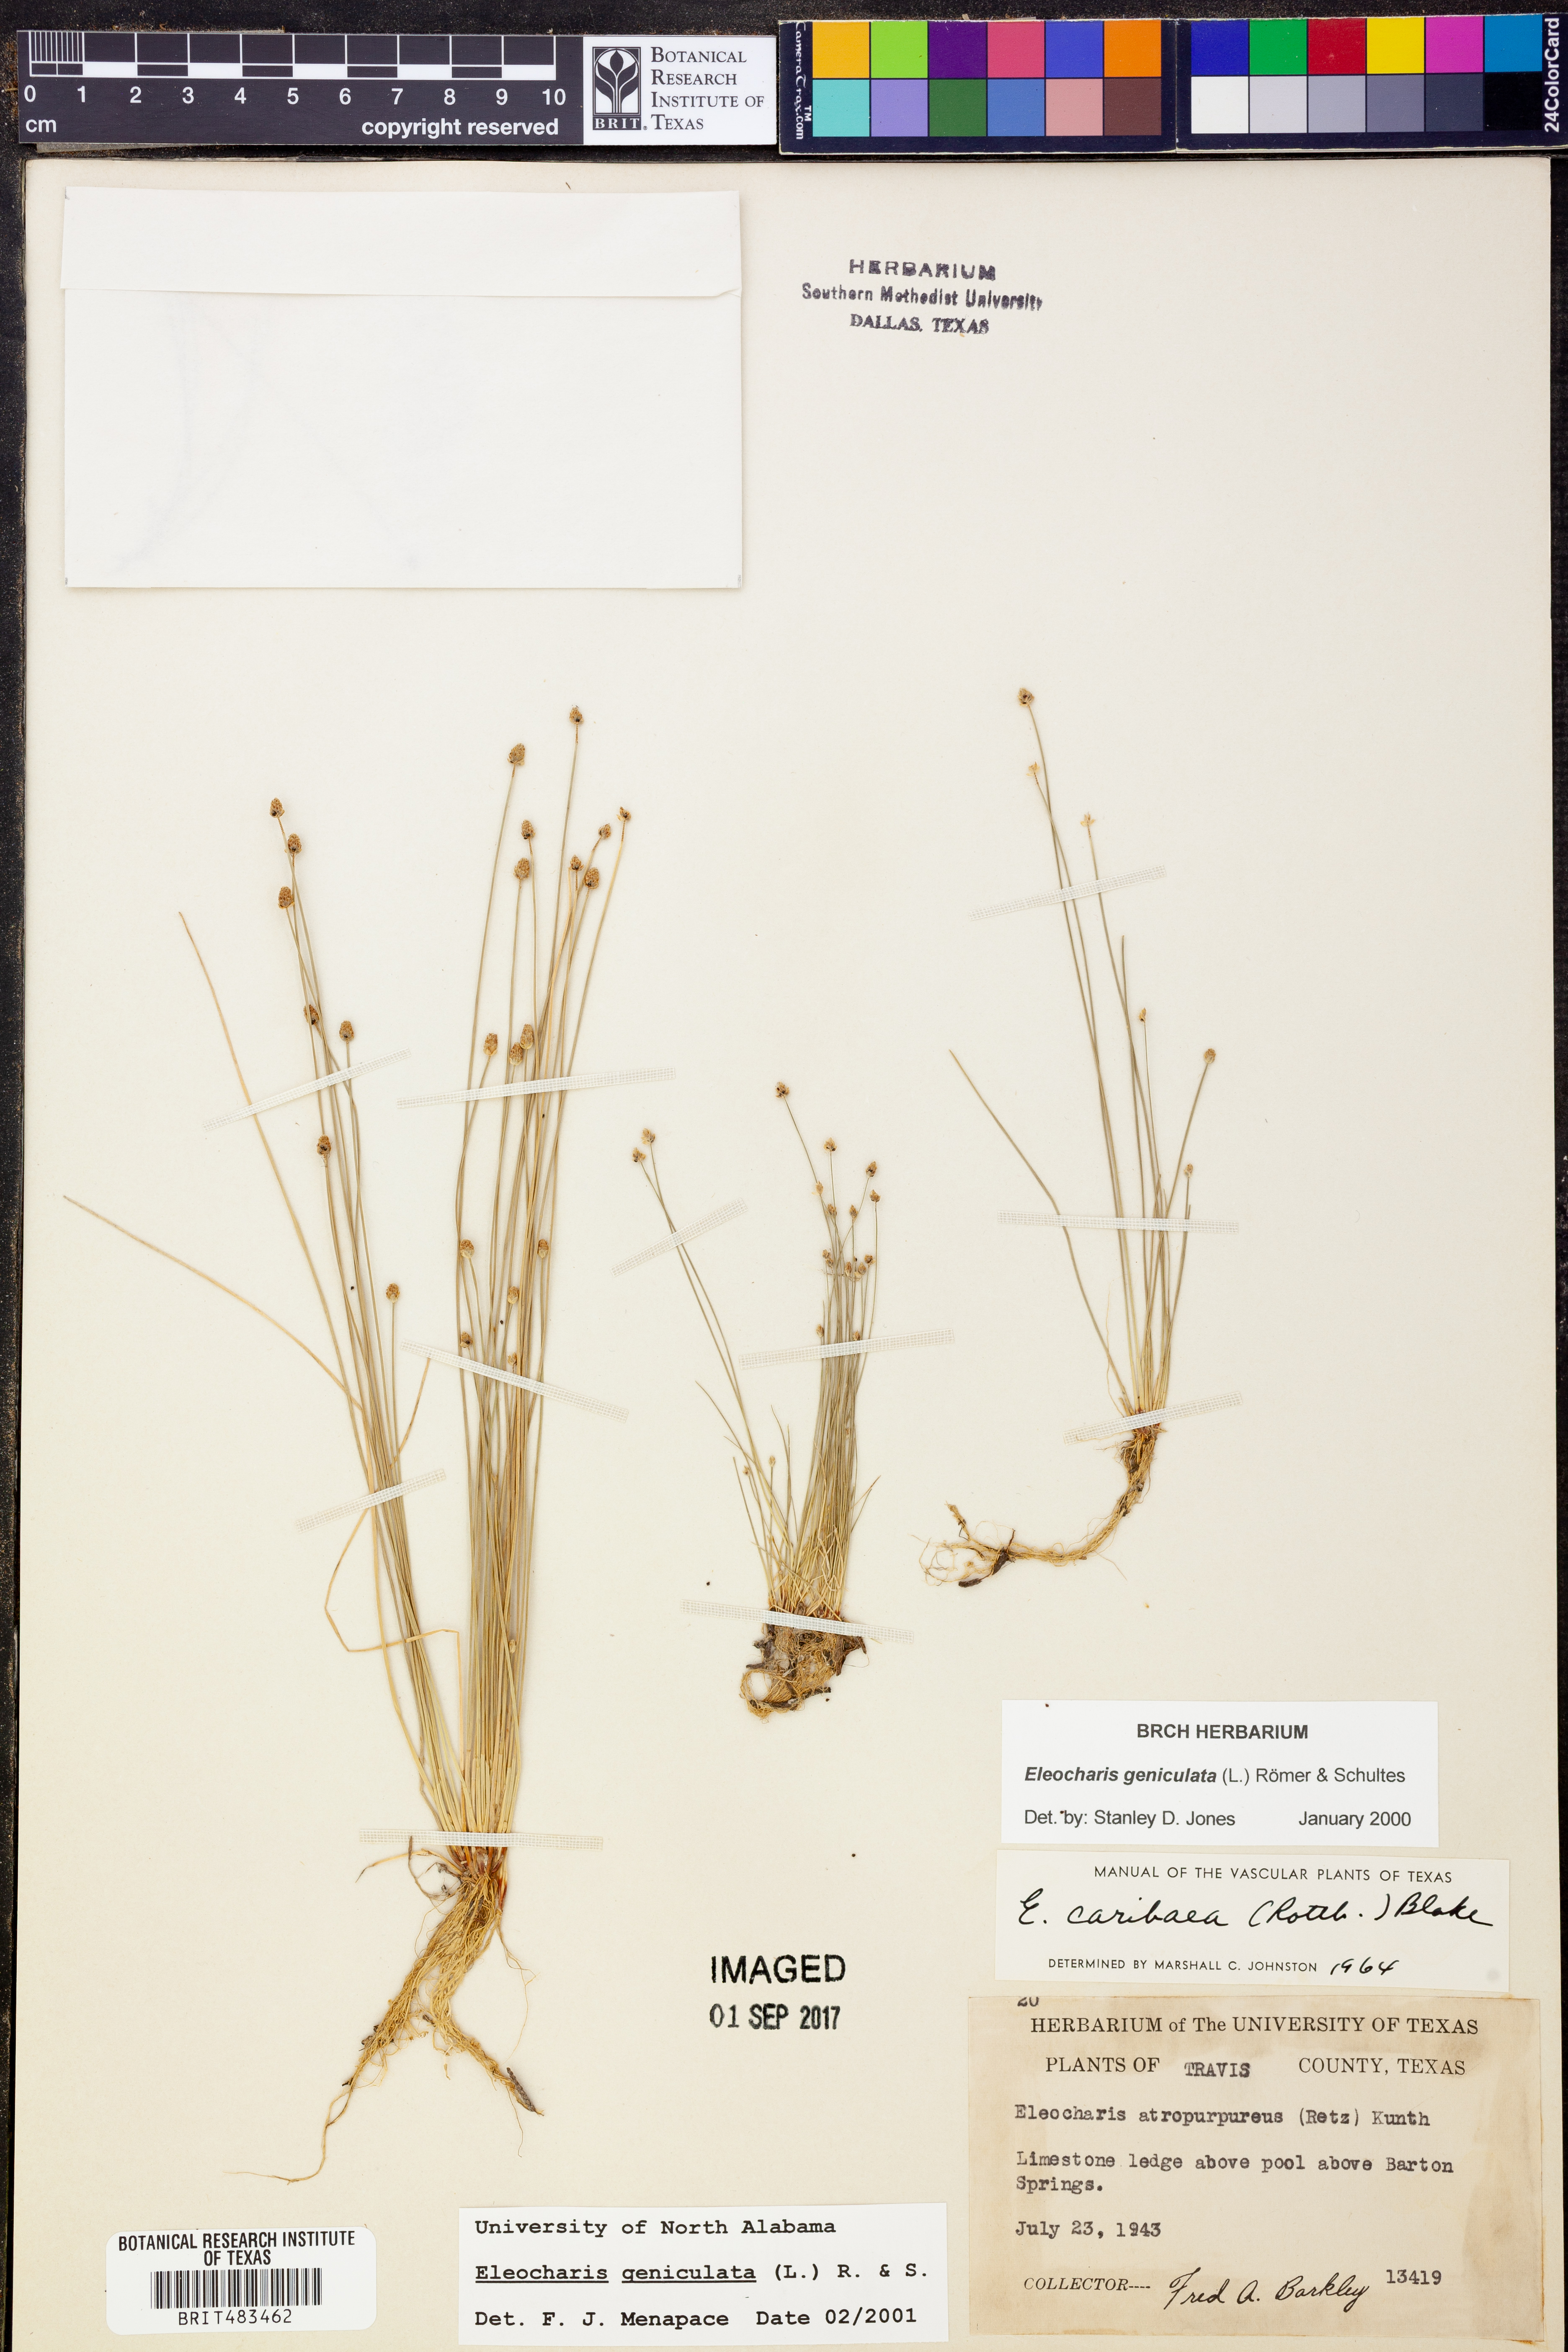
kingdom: Plantae
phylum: Tracheophyta
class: Liliopsida
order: Poales
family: Cyperaceae
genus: Eleocharis
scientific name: Eleocharis geniculata
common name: Canada spikesedge
